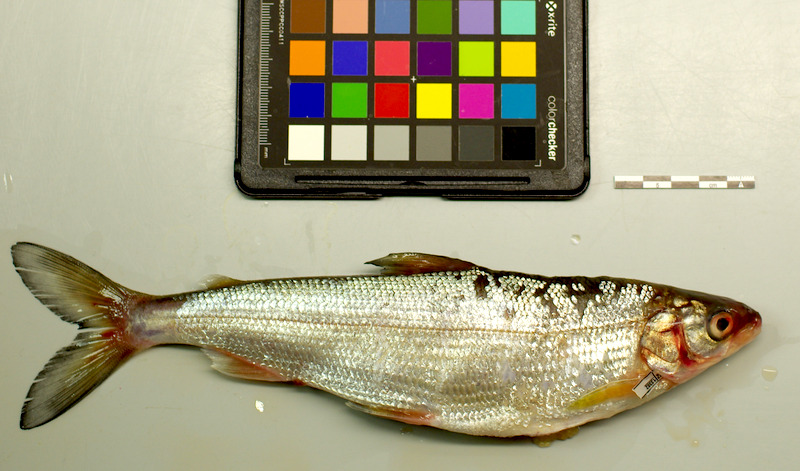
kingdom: Animalia
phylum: Chordata
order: Salmoniformes
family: Salmonidae
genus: Coregonus
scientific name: Coregonus
